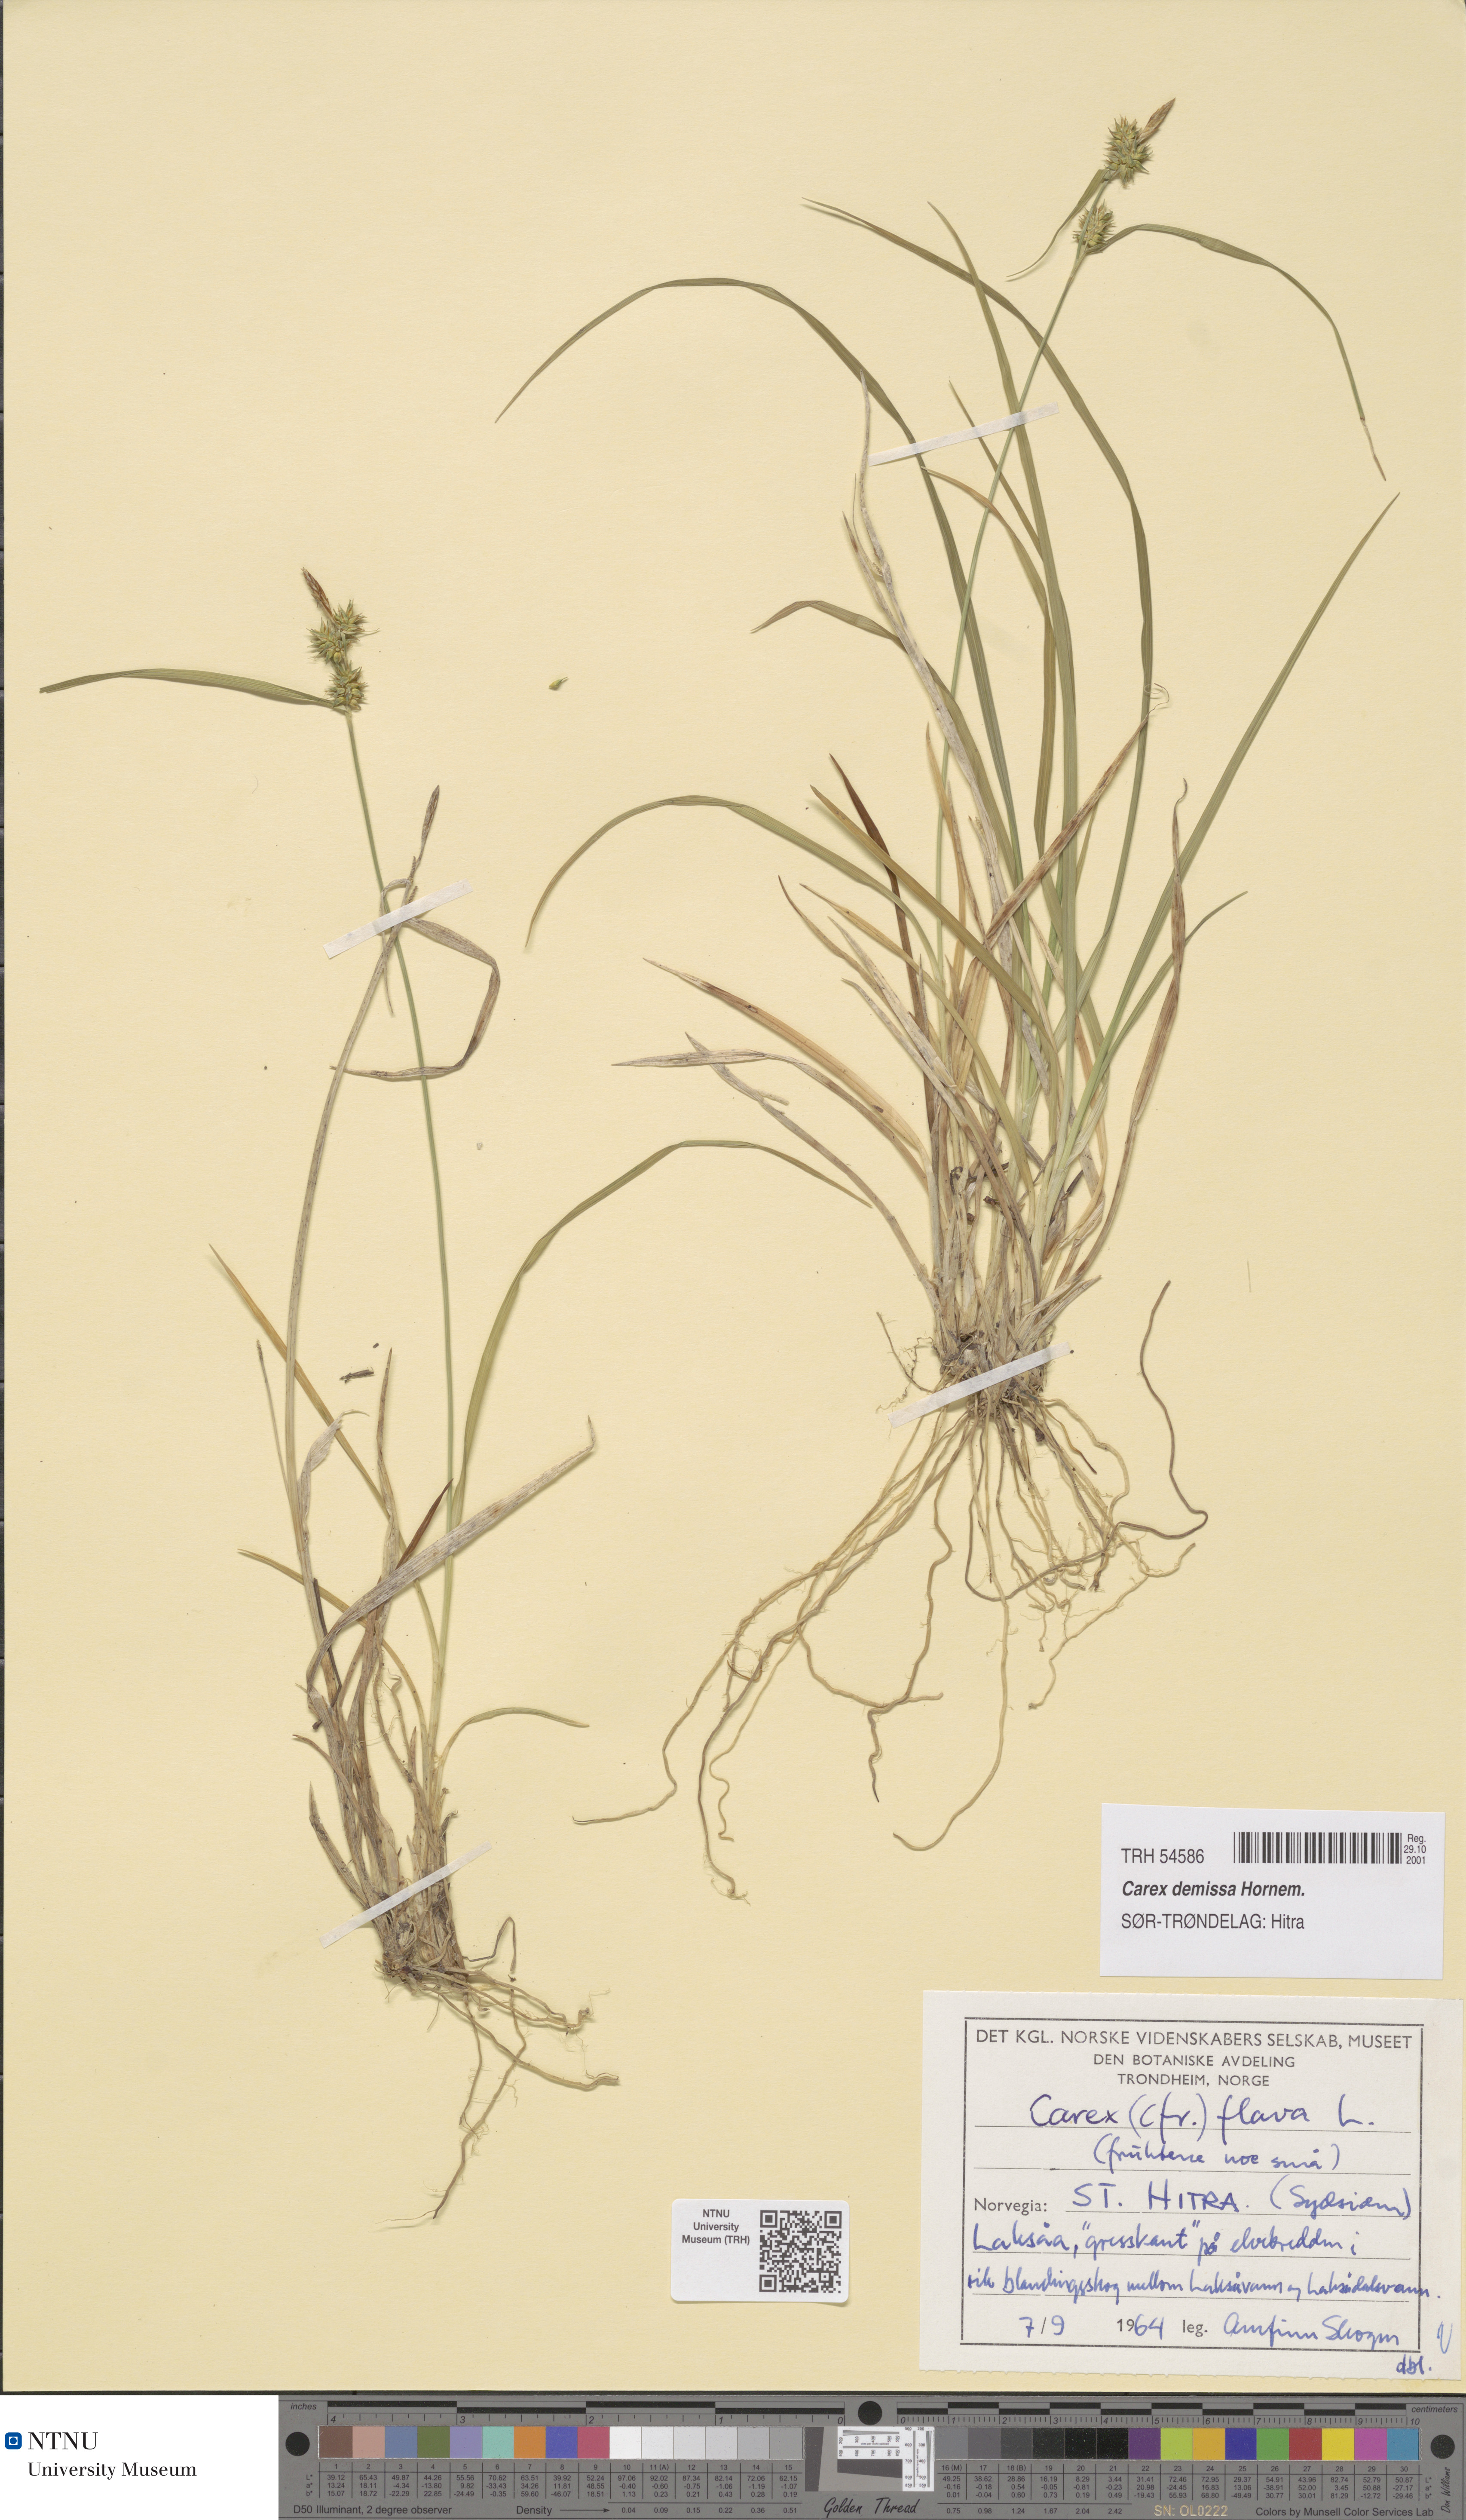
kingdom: Plantae
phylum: Tracheophyta
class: Liliopsida
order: Poales
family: Cyperaceae
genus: Carex
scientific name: Carex demissa
